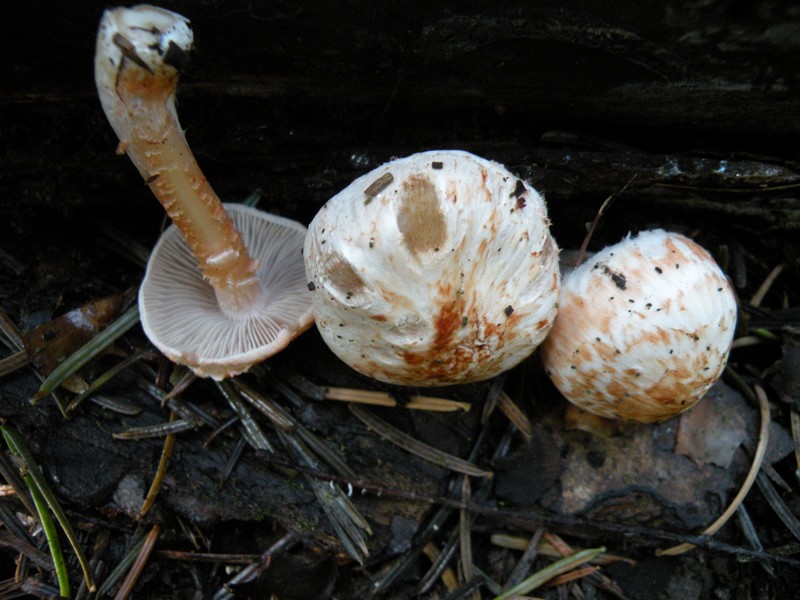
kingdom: Fungi
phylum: Basidiomycota
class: Agaricomycetes
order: Agaricales
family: Inocybaceae
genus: Inocybe
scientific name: Inocybe whitei
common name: Blushing fibrecap
